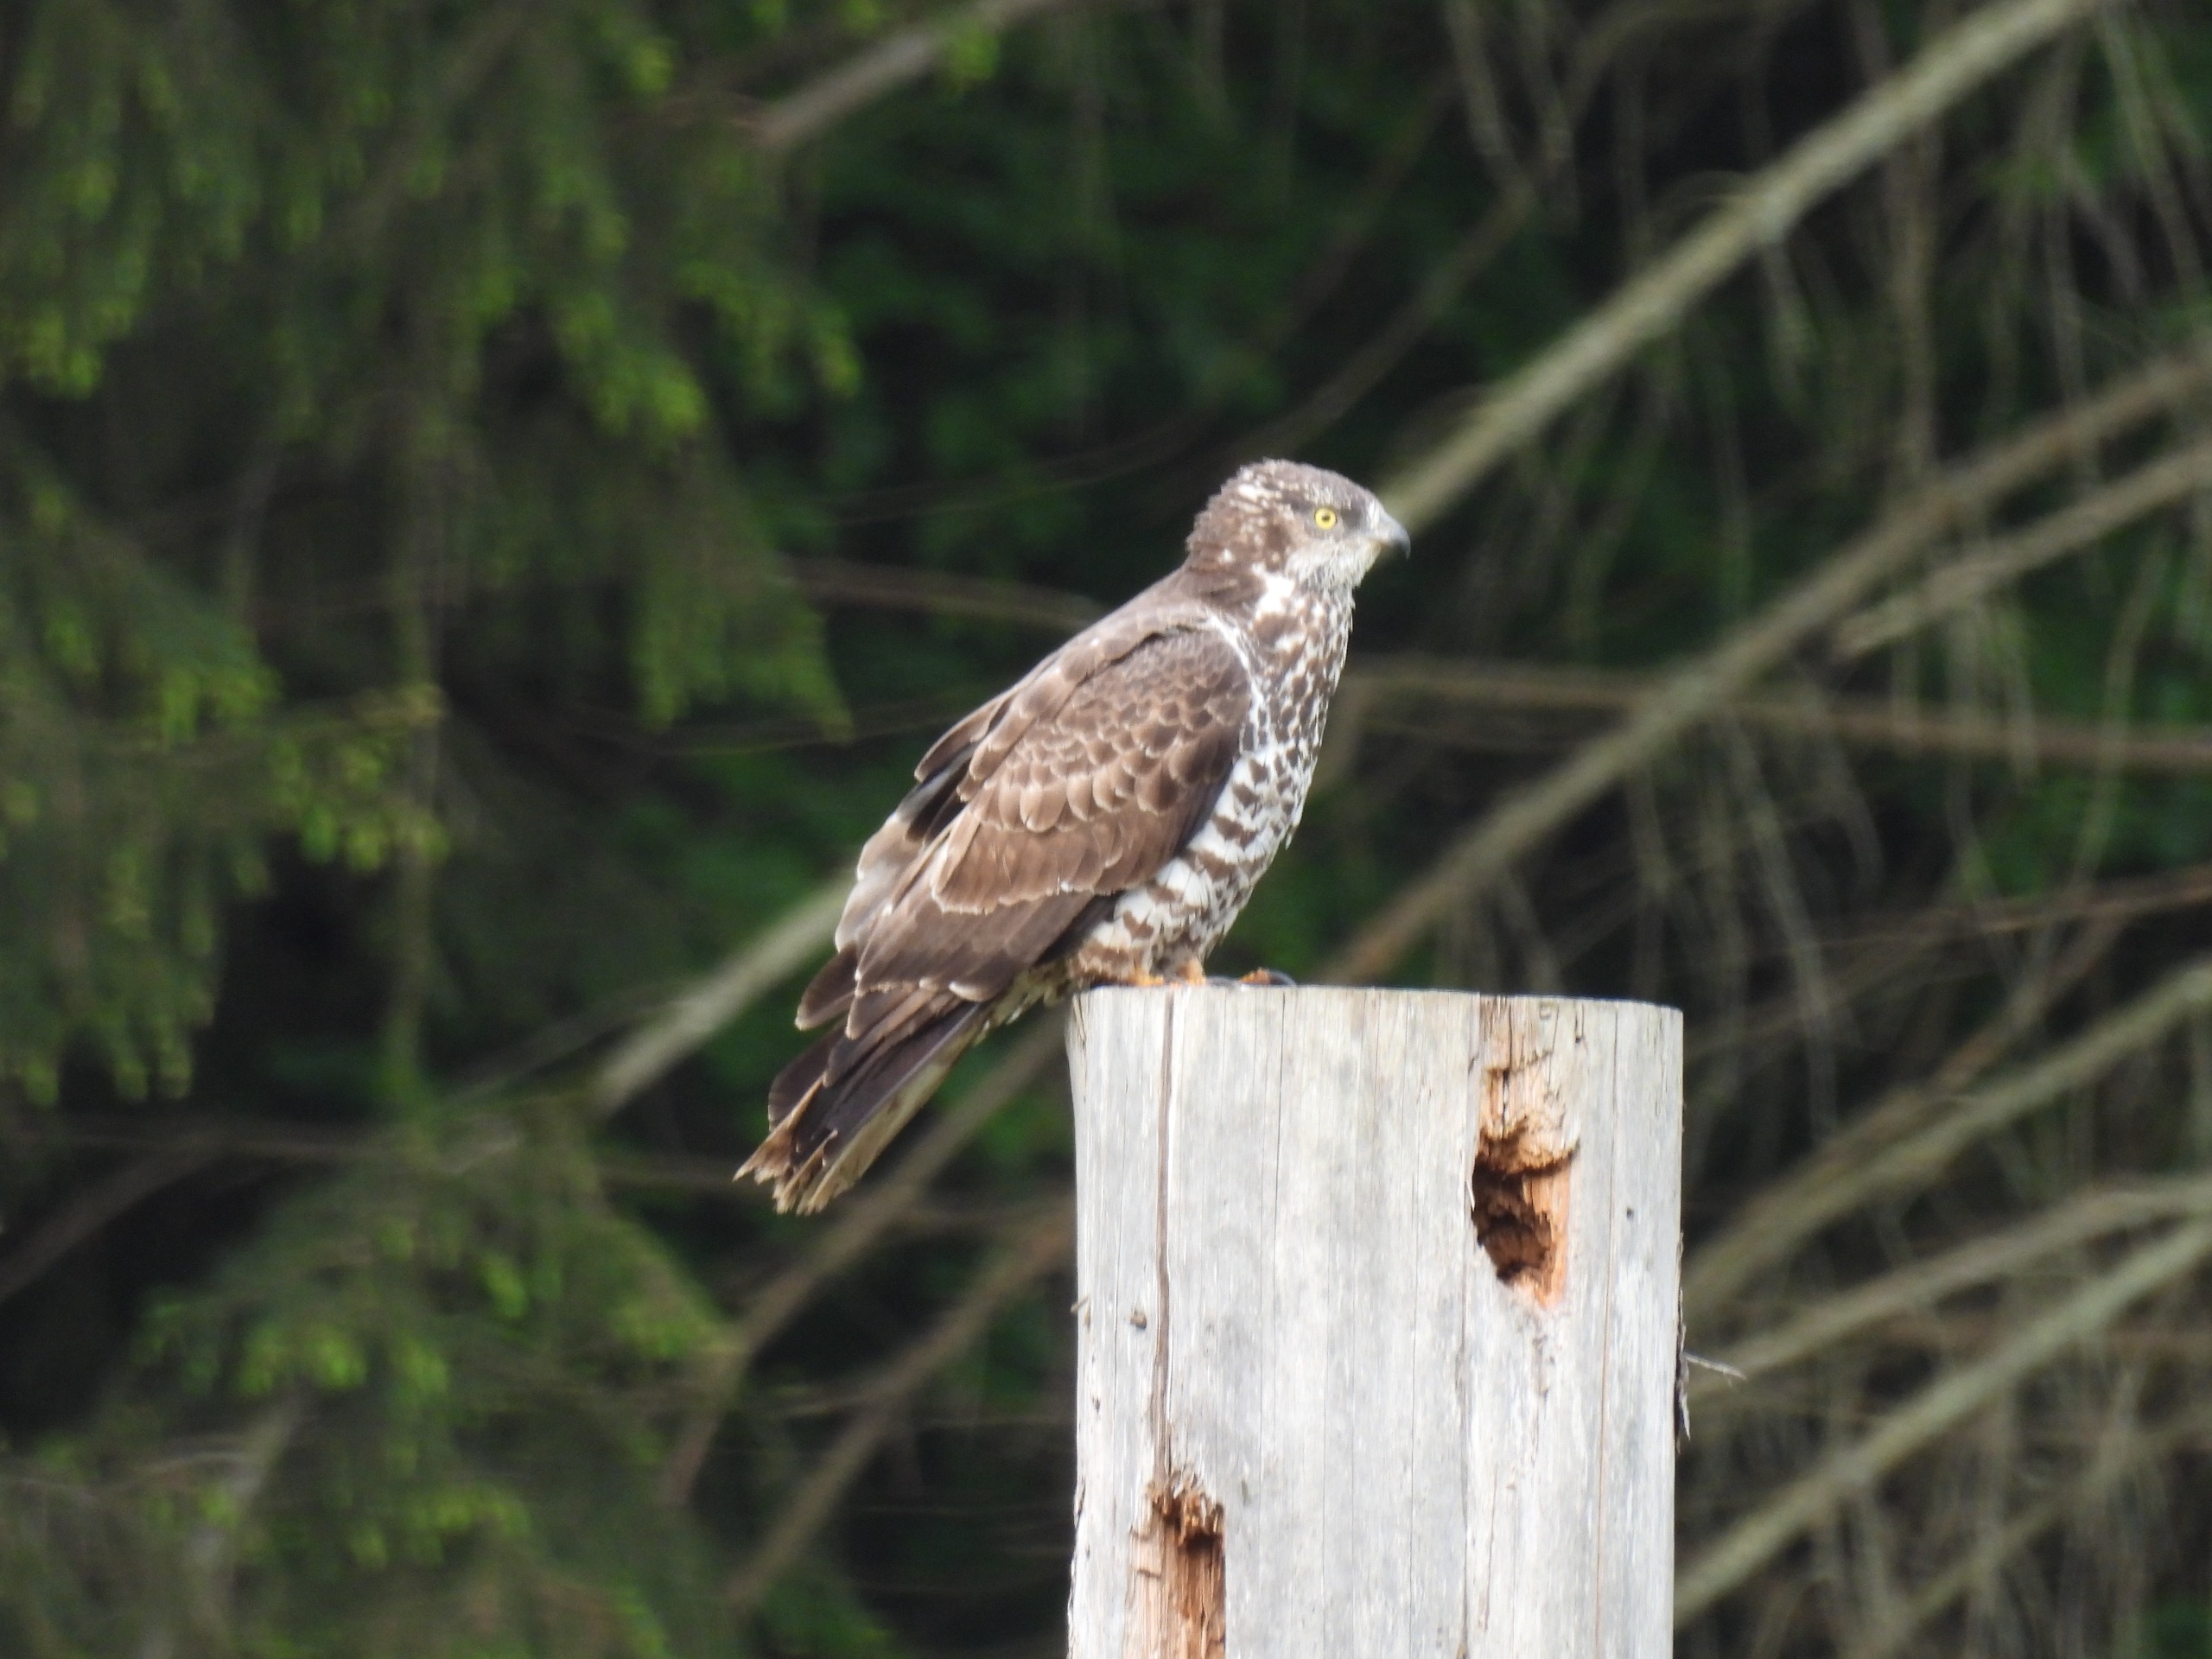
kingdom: Animalia
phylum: Chordata
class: Aves
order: Accipitriformes
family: Accipitridae
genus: Accipiter
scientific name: Accipiter nisus
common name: Spurvehøg
